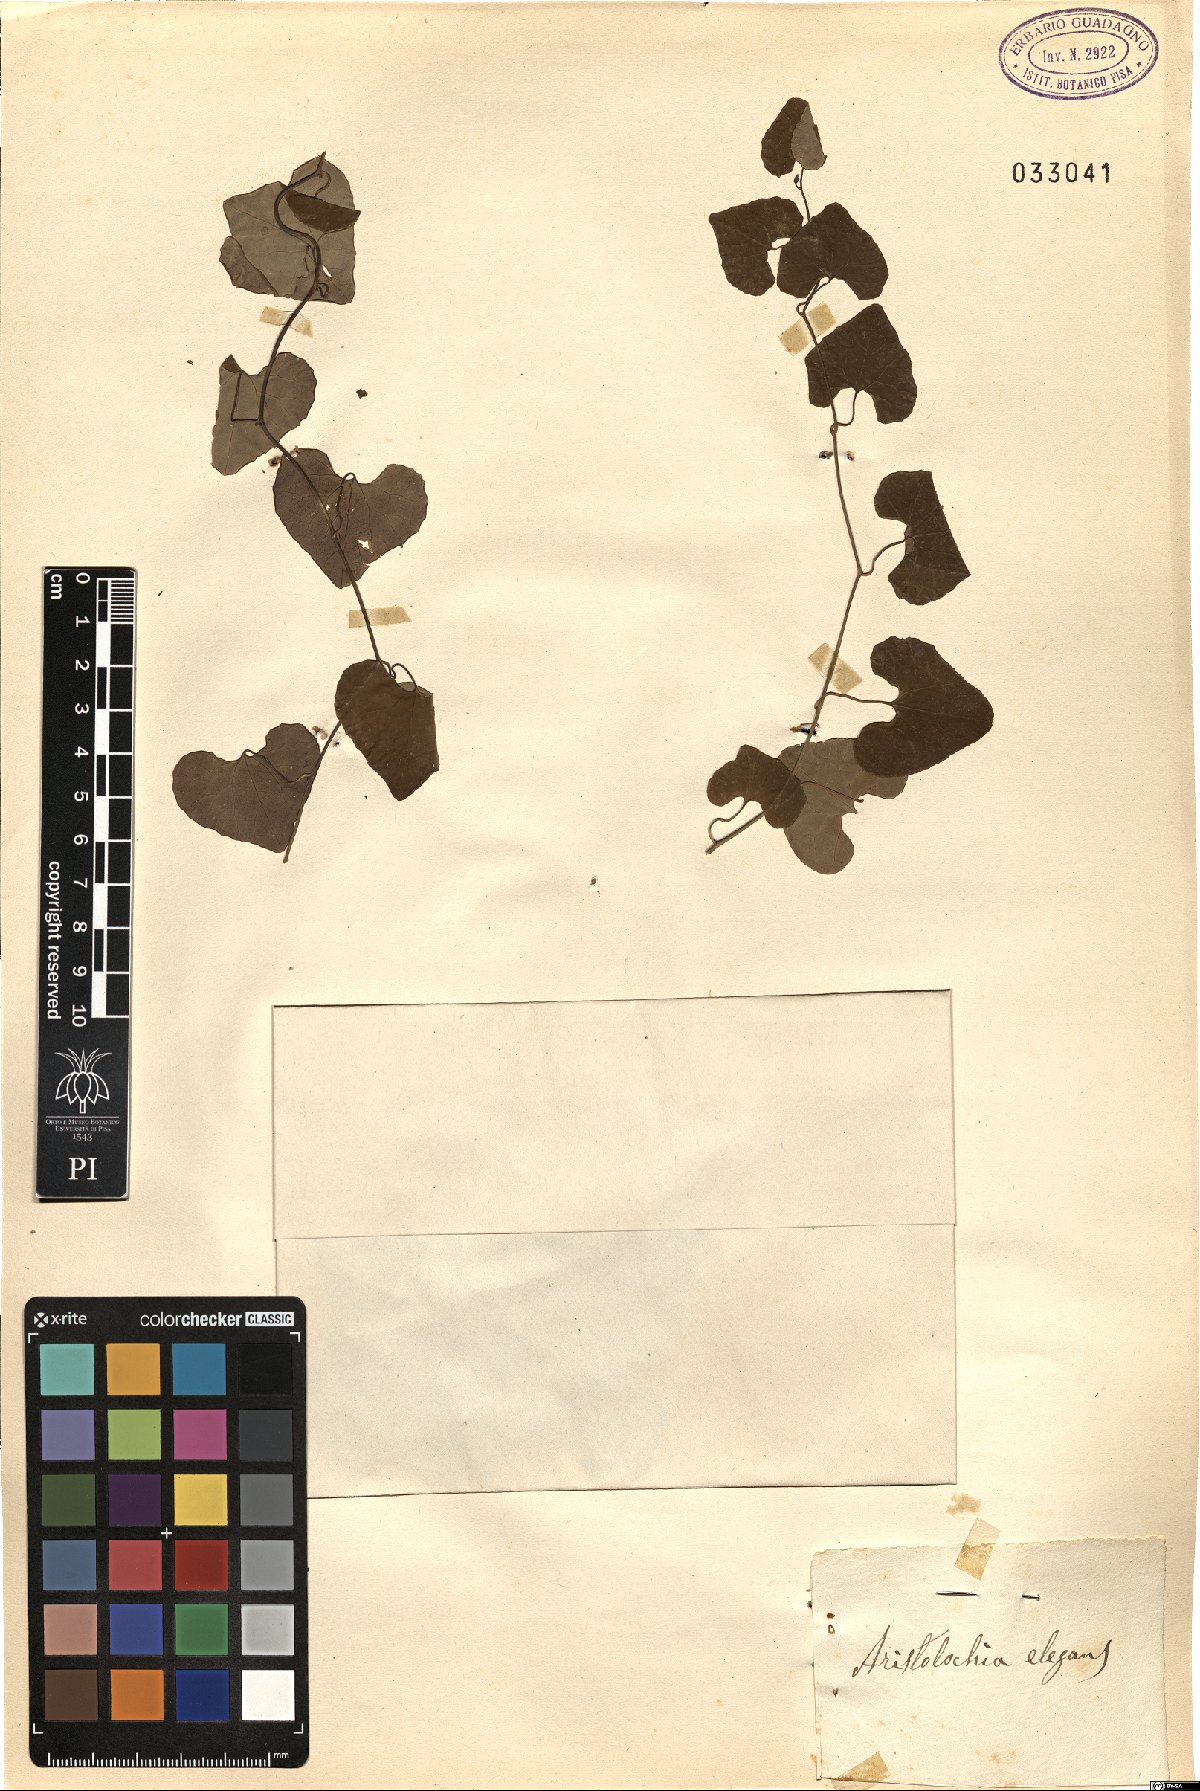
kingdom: Plantae
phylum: Tracheophyta
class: Magnoliopsida
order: Piperales
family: Aristolochiaceae
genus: Aristolochia
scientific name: Aristolochia littoralis
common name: Duck
